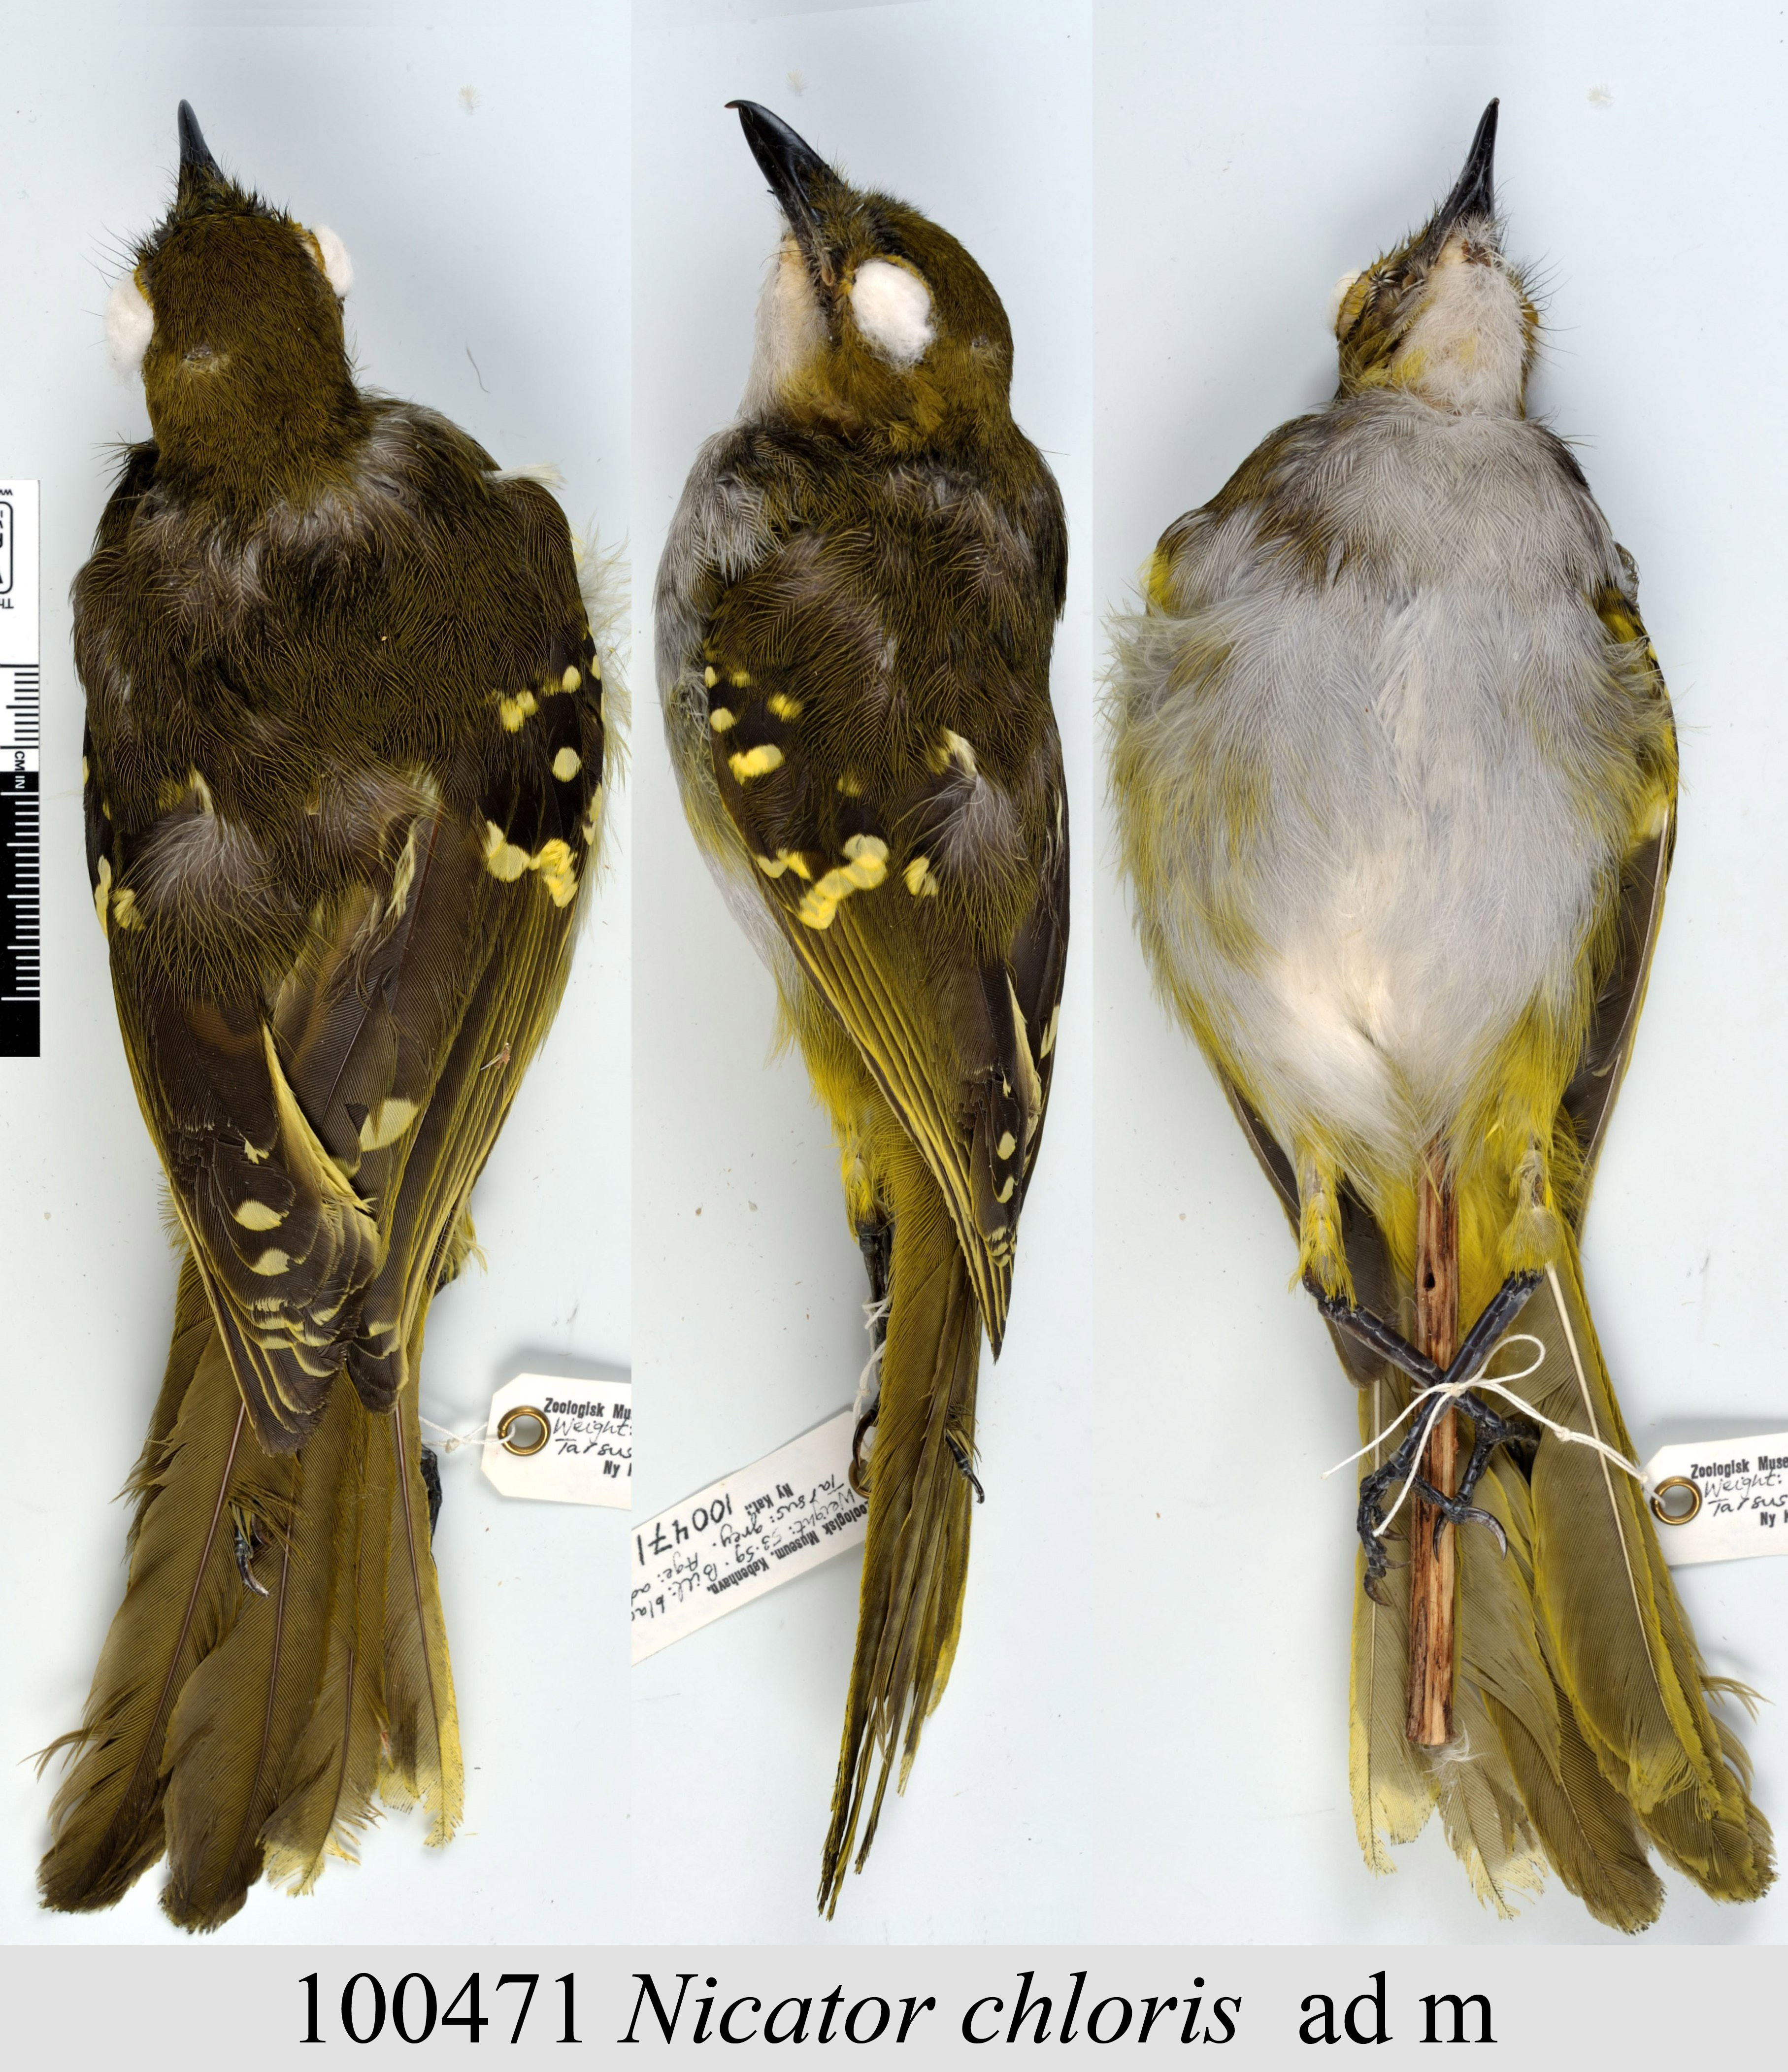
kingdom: Animalia
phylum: Chordata
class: Aves
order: Passeriformes
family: Nicatoridae
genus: Nicator
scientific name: Nicator chloris
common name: Western nicator
